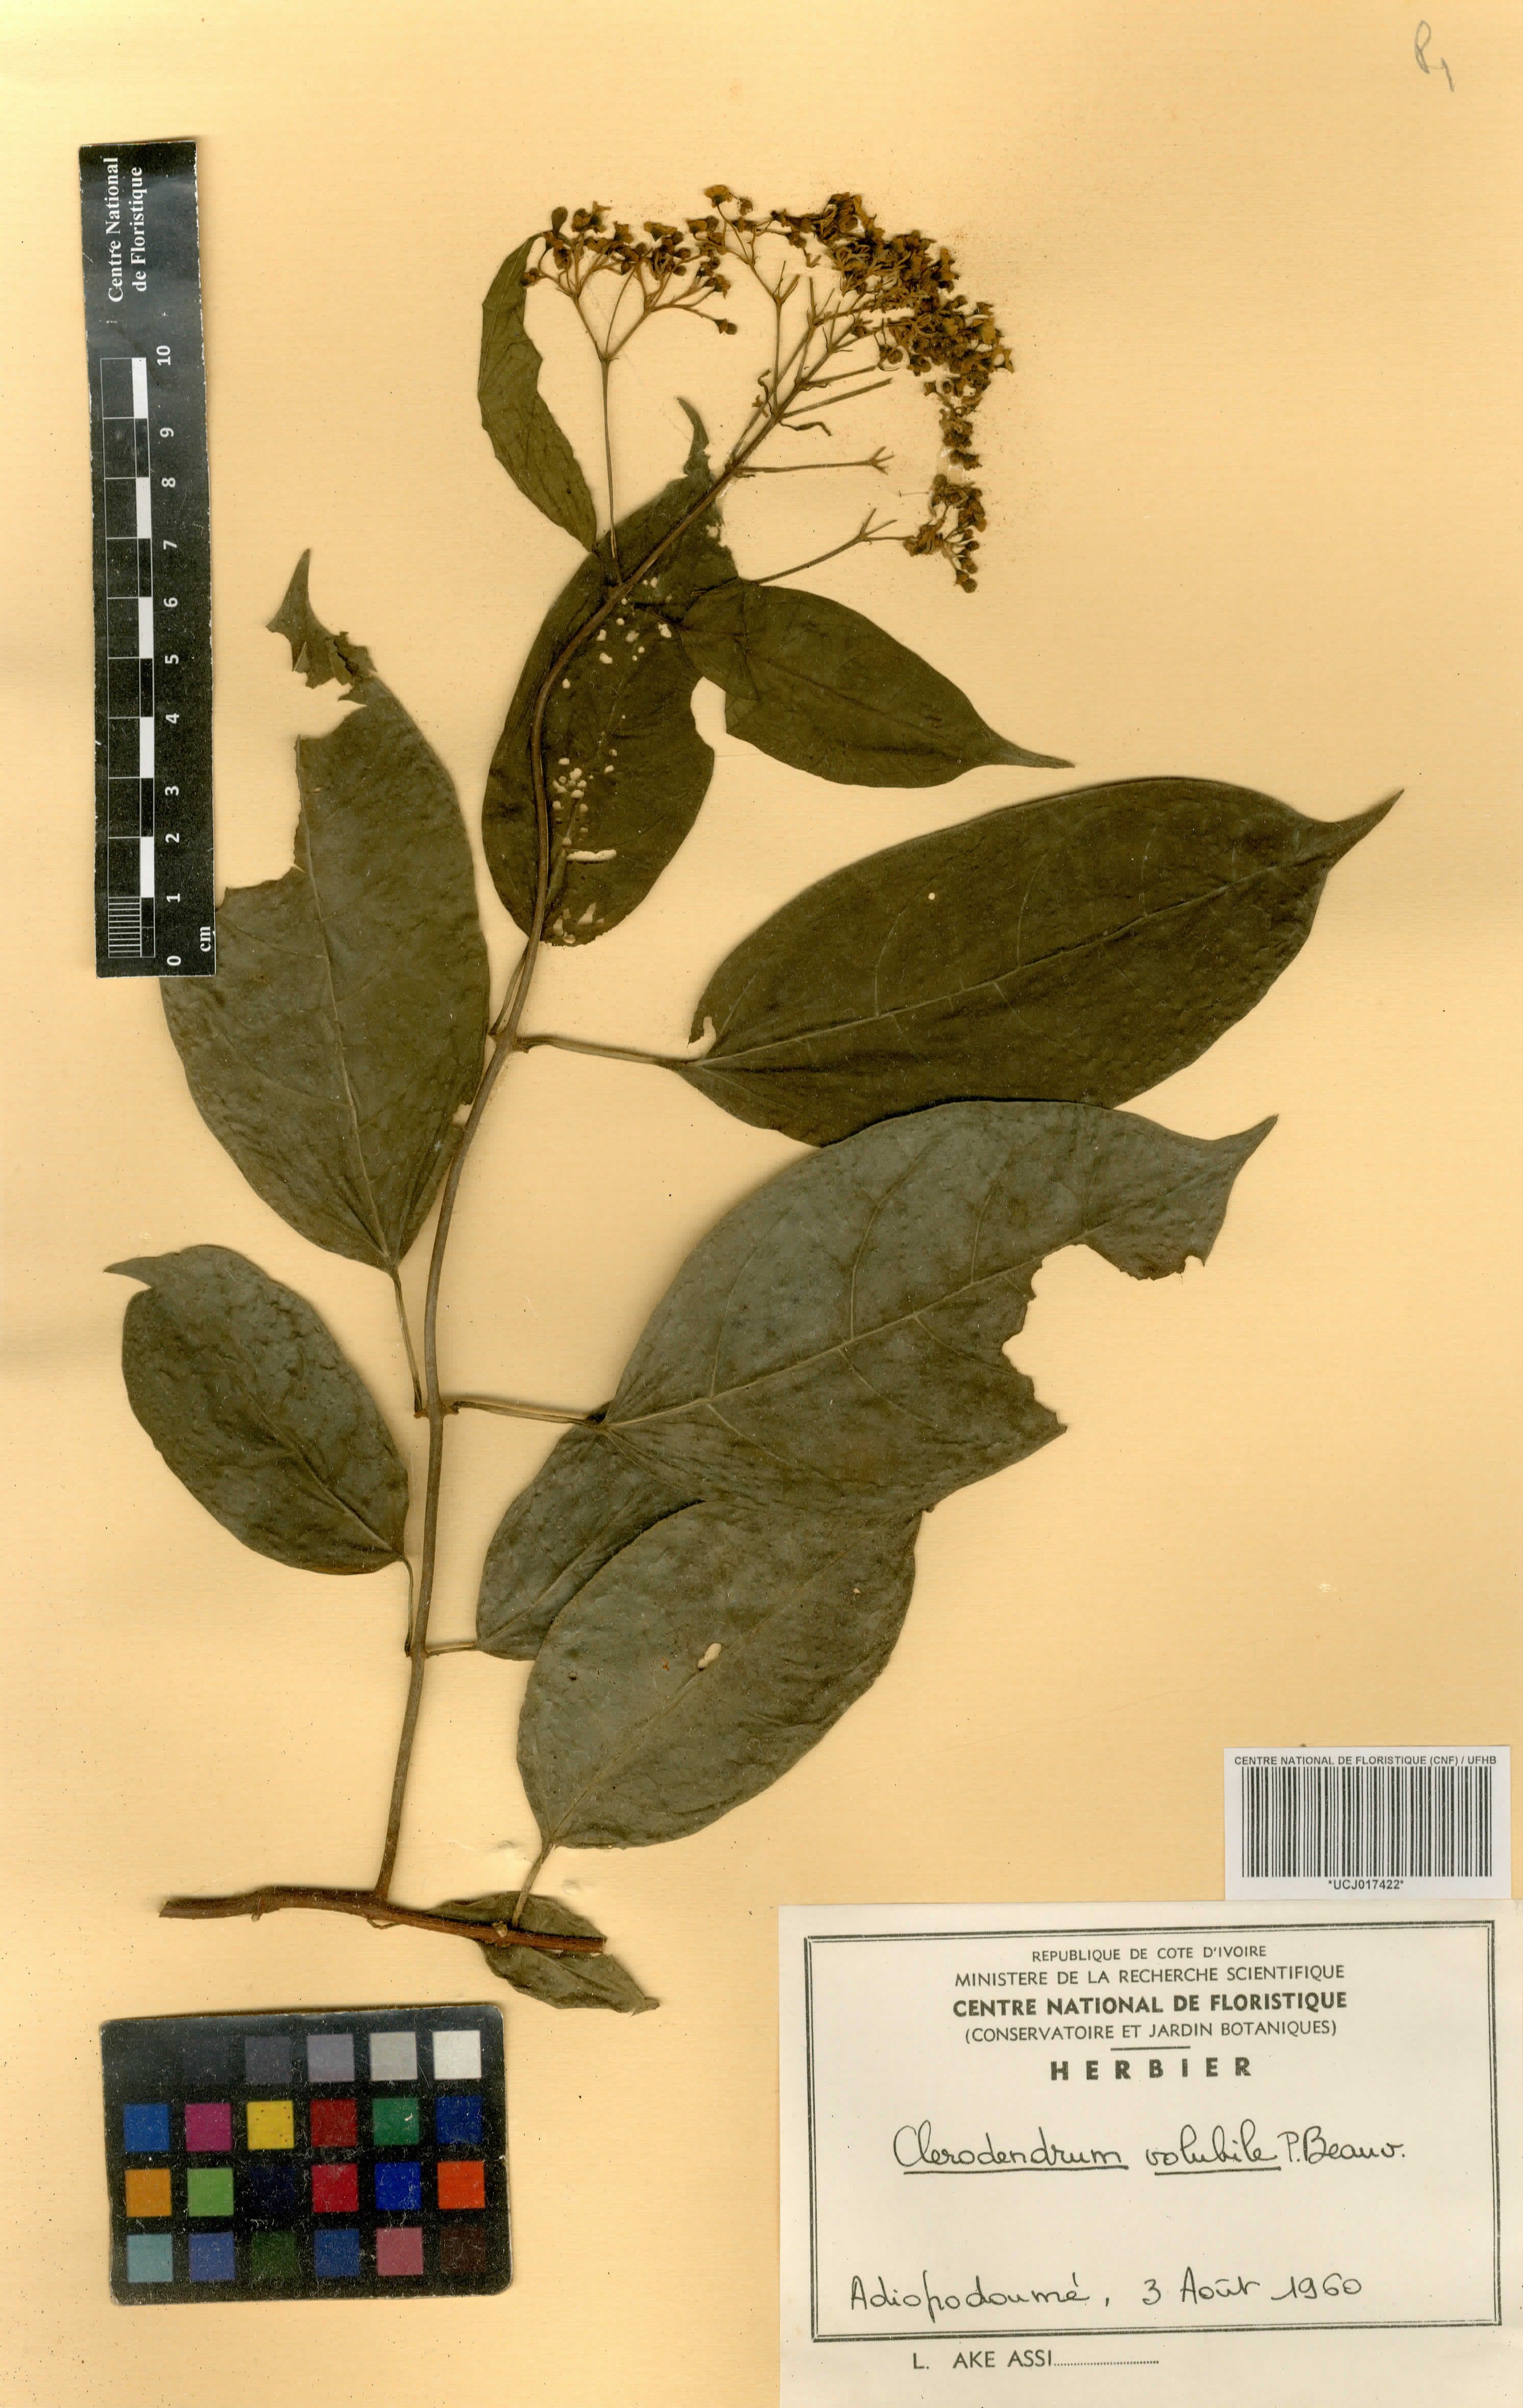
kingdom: Plantae
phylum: Tracheophyta
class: Magnoliopsida
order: Lamiales
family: Lamiaceae
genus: Clerodendrum
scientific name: Clerodendrum volubile
